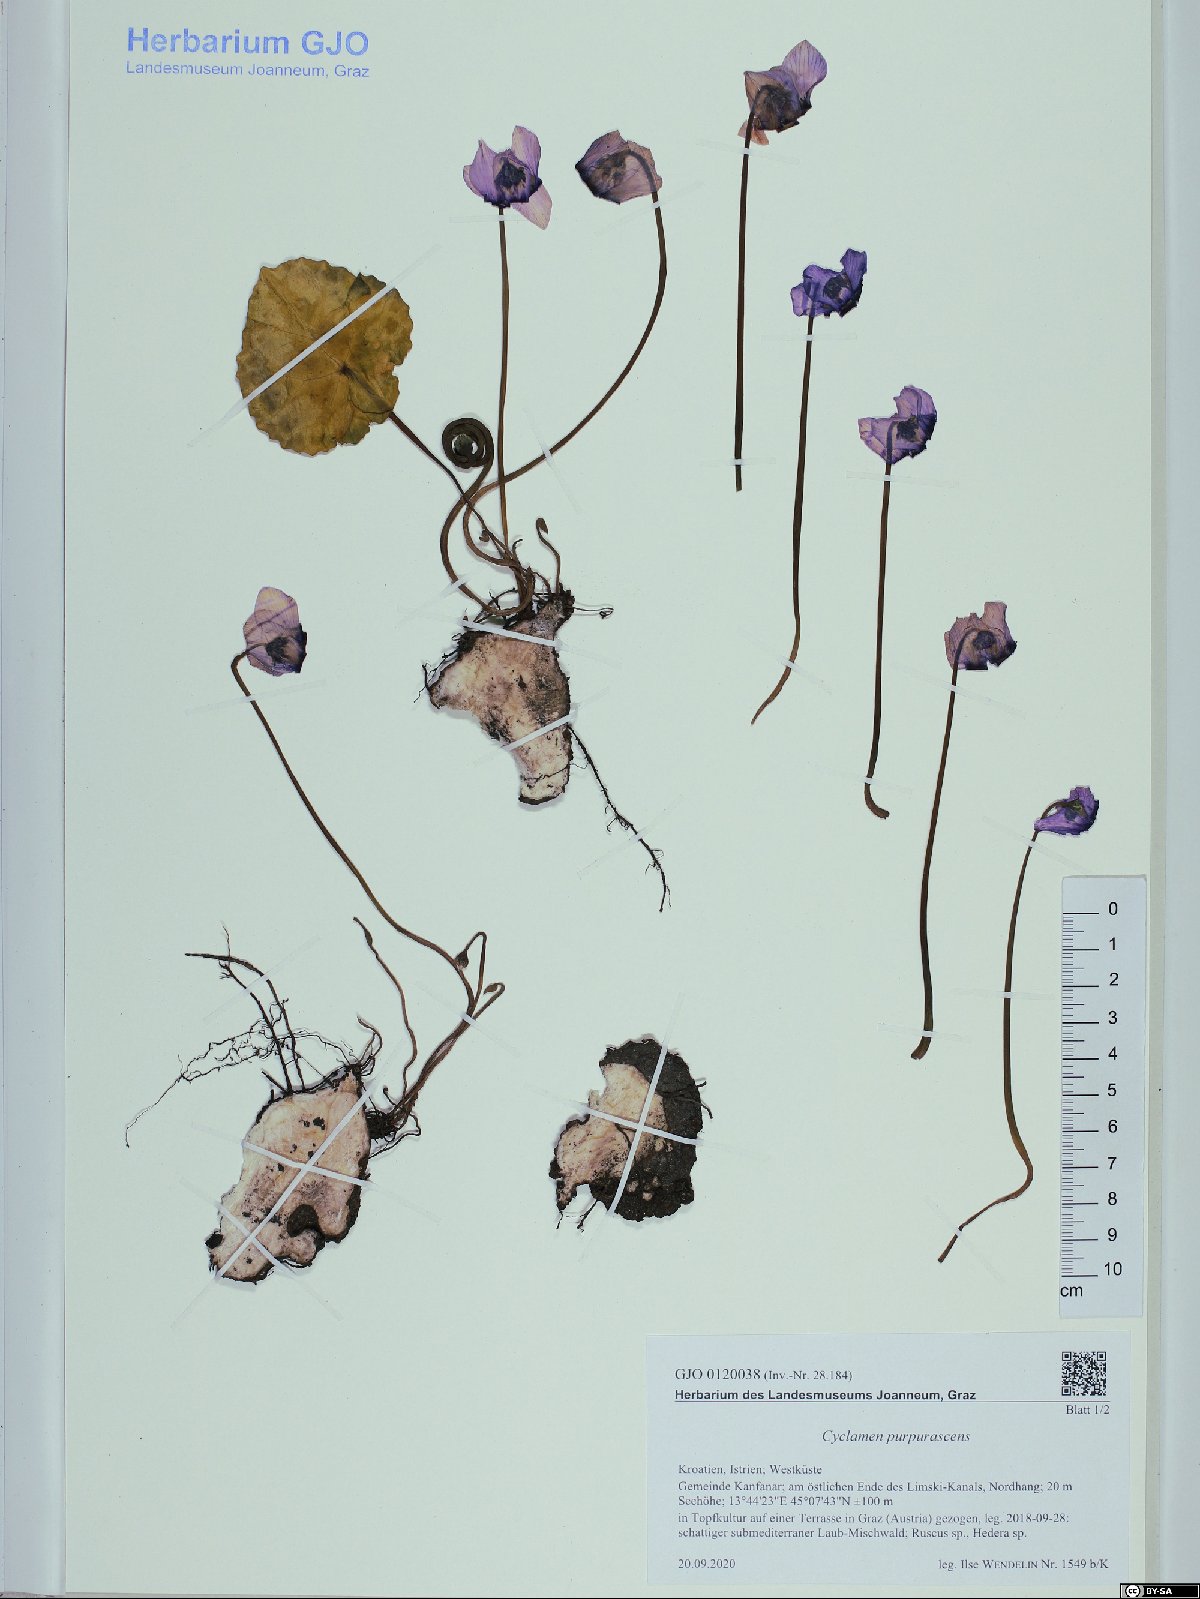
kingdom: Plantae
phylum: Tracheophyta
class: Magnoliopsida
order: Ericales
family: Primulaceae
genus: Cyclamen
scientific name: Cyclamen purpurascens
